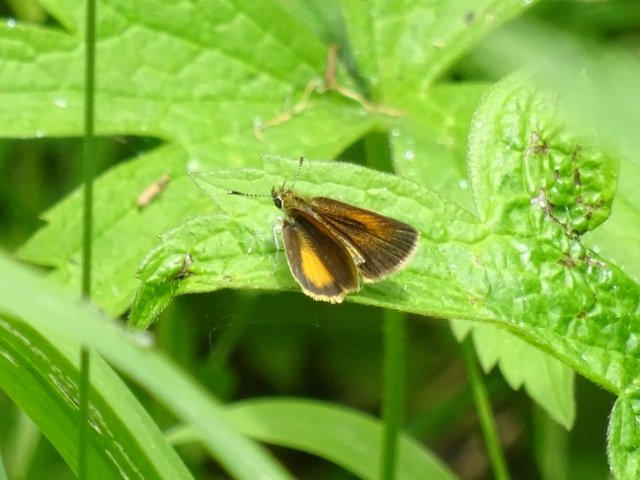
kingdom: Animalia
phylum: Arthropoda
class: Insecta
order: Lepidoptera
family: Hesperiidae
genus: Ancyloxypha
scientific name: Ancyloxypha numitor
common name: Least Skipper
